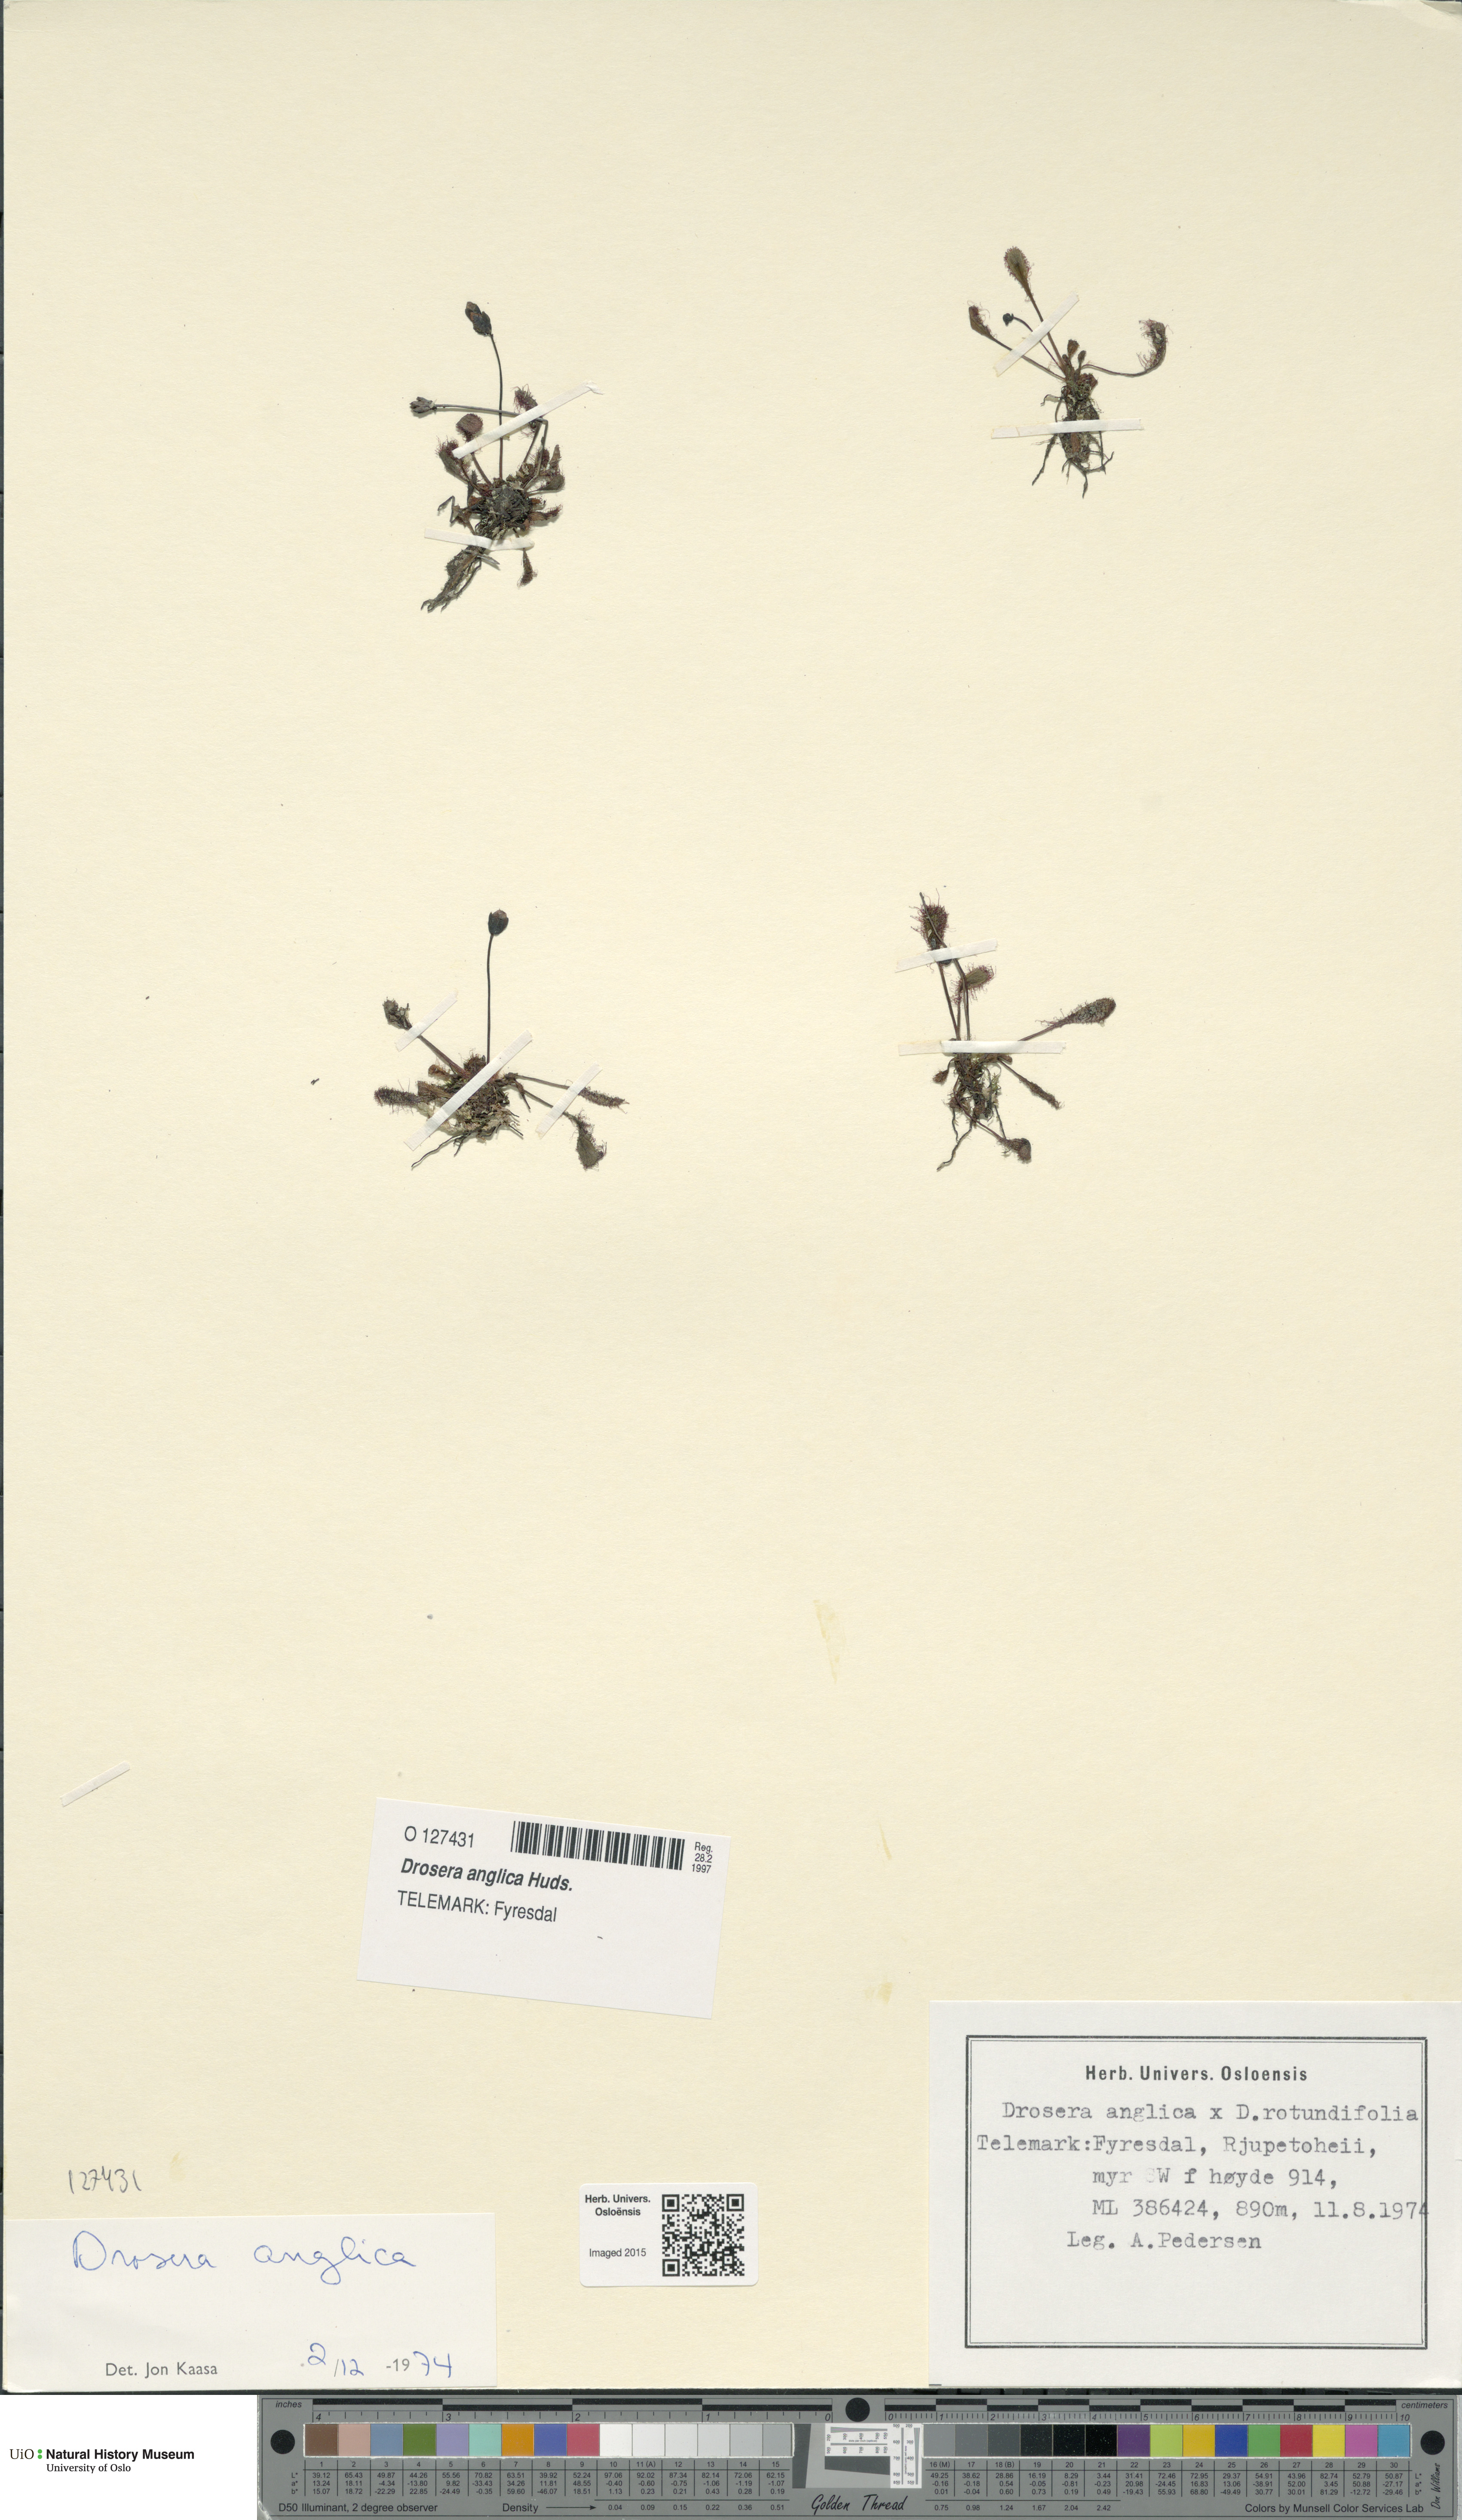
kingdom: Plantae
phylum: Tracheophyta
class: Magnoliopsida
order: Caryophyllales
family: Droseraceae
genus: Drosera
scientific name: Drosera anglica
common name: Great sundew
